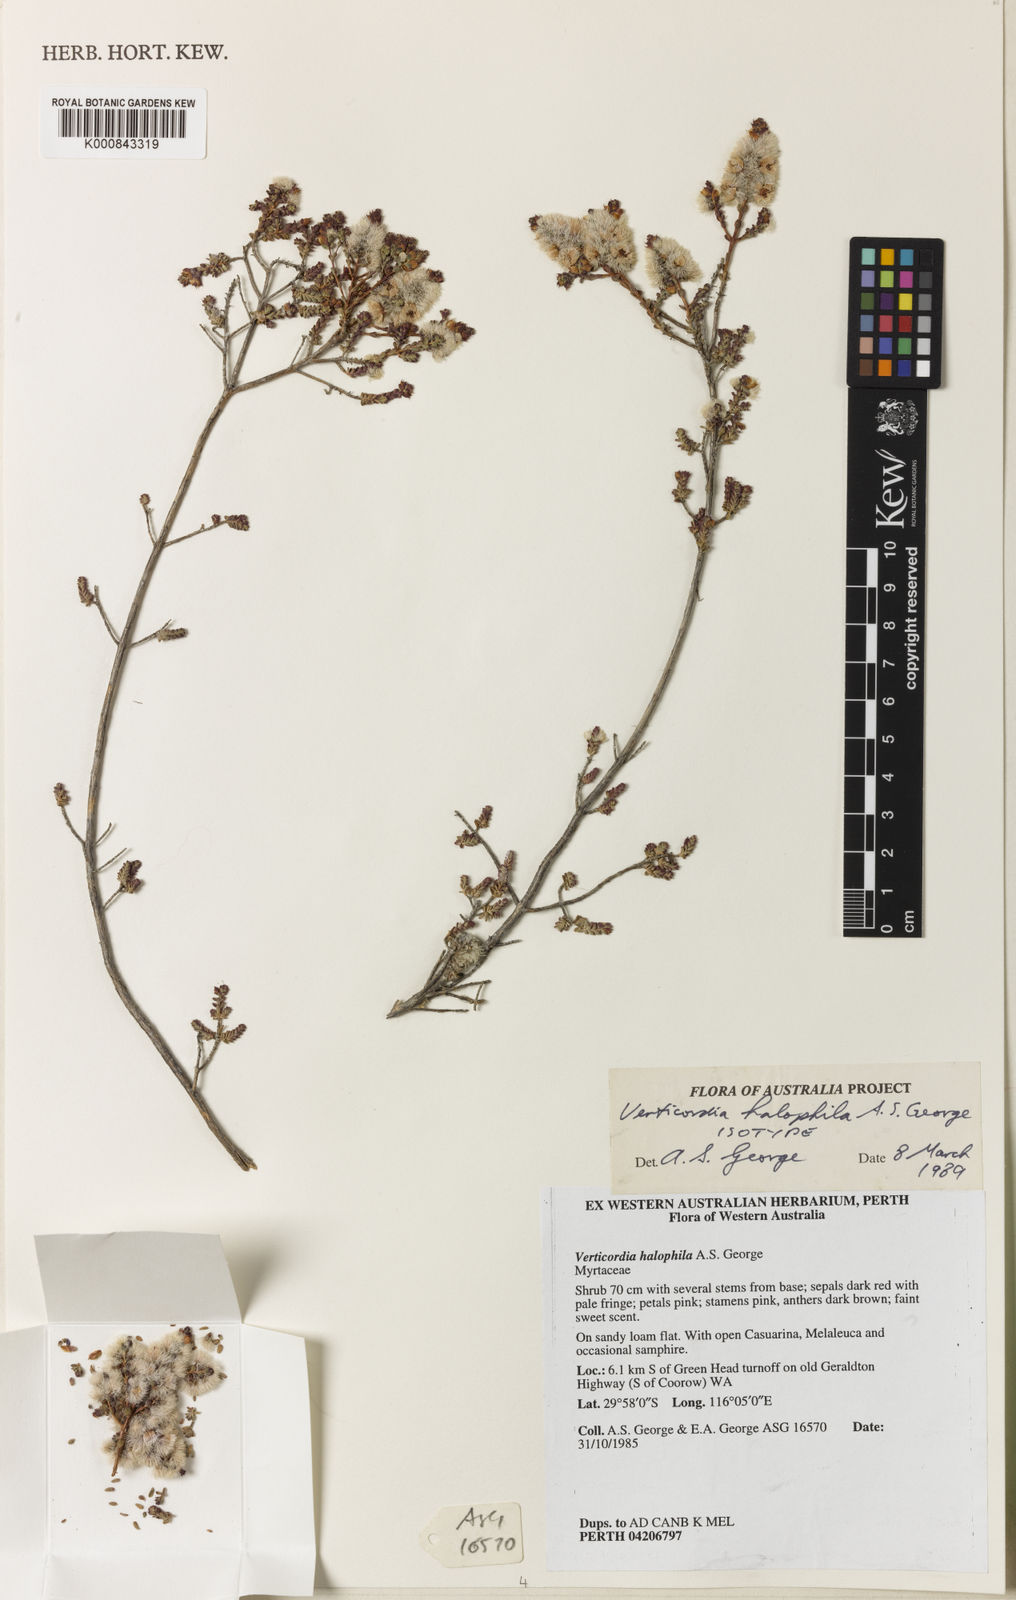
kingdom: Plantae
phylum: Tracheophyta
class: Magnoliopsida
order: Myrtales
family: Myrtaceae
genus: Verticordia
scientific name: Verticordia halophila
